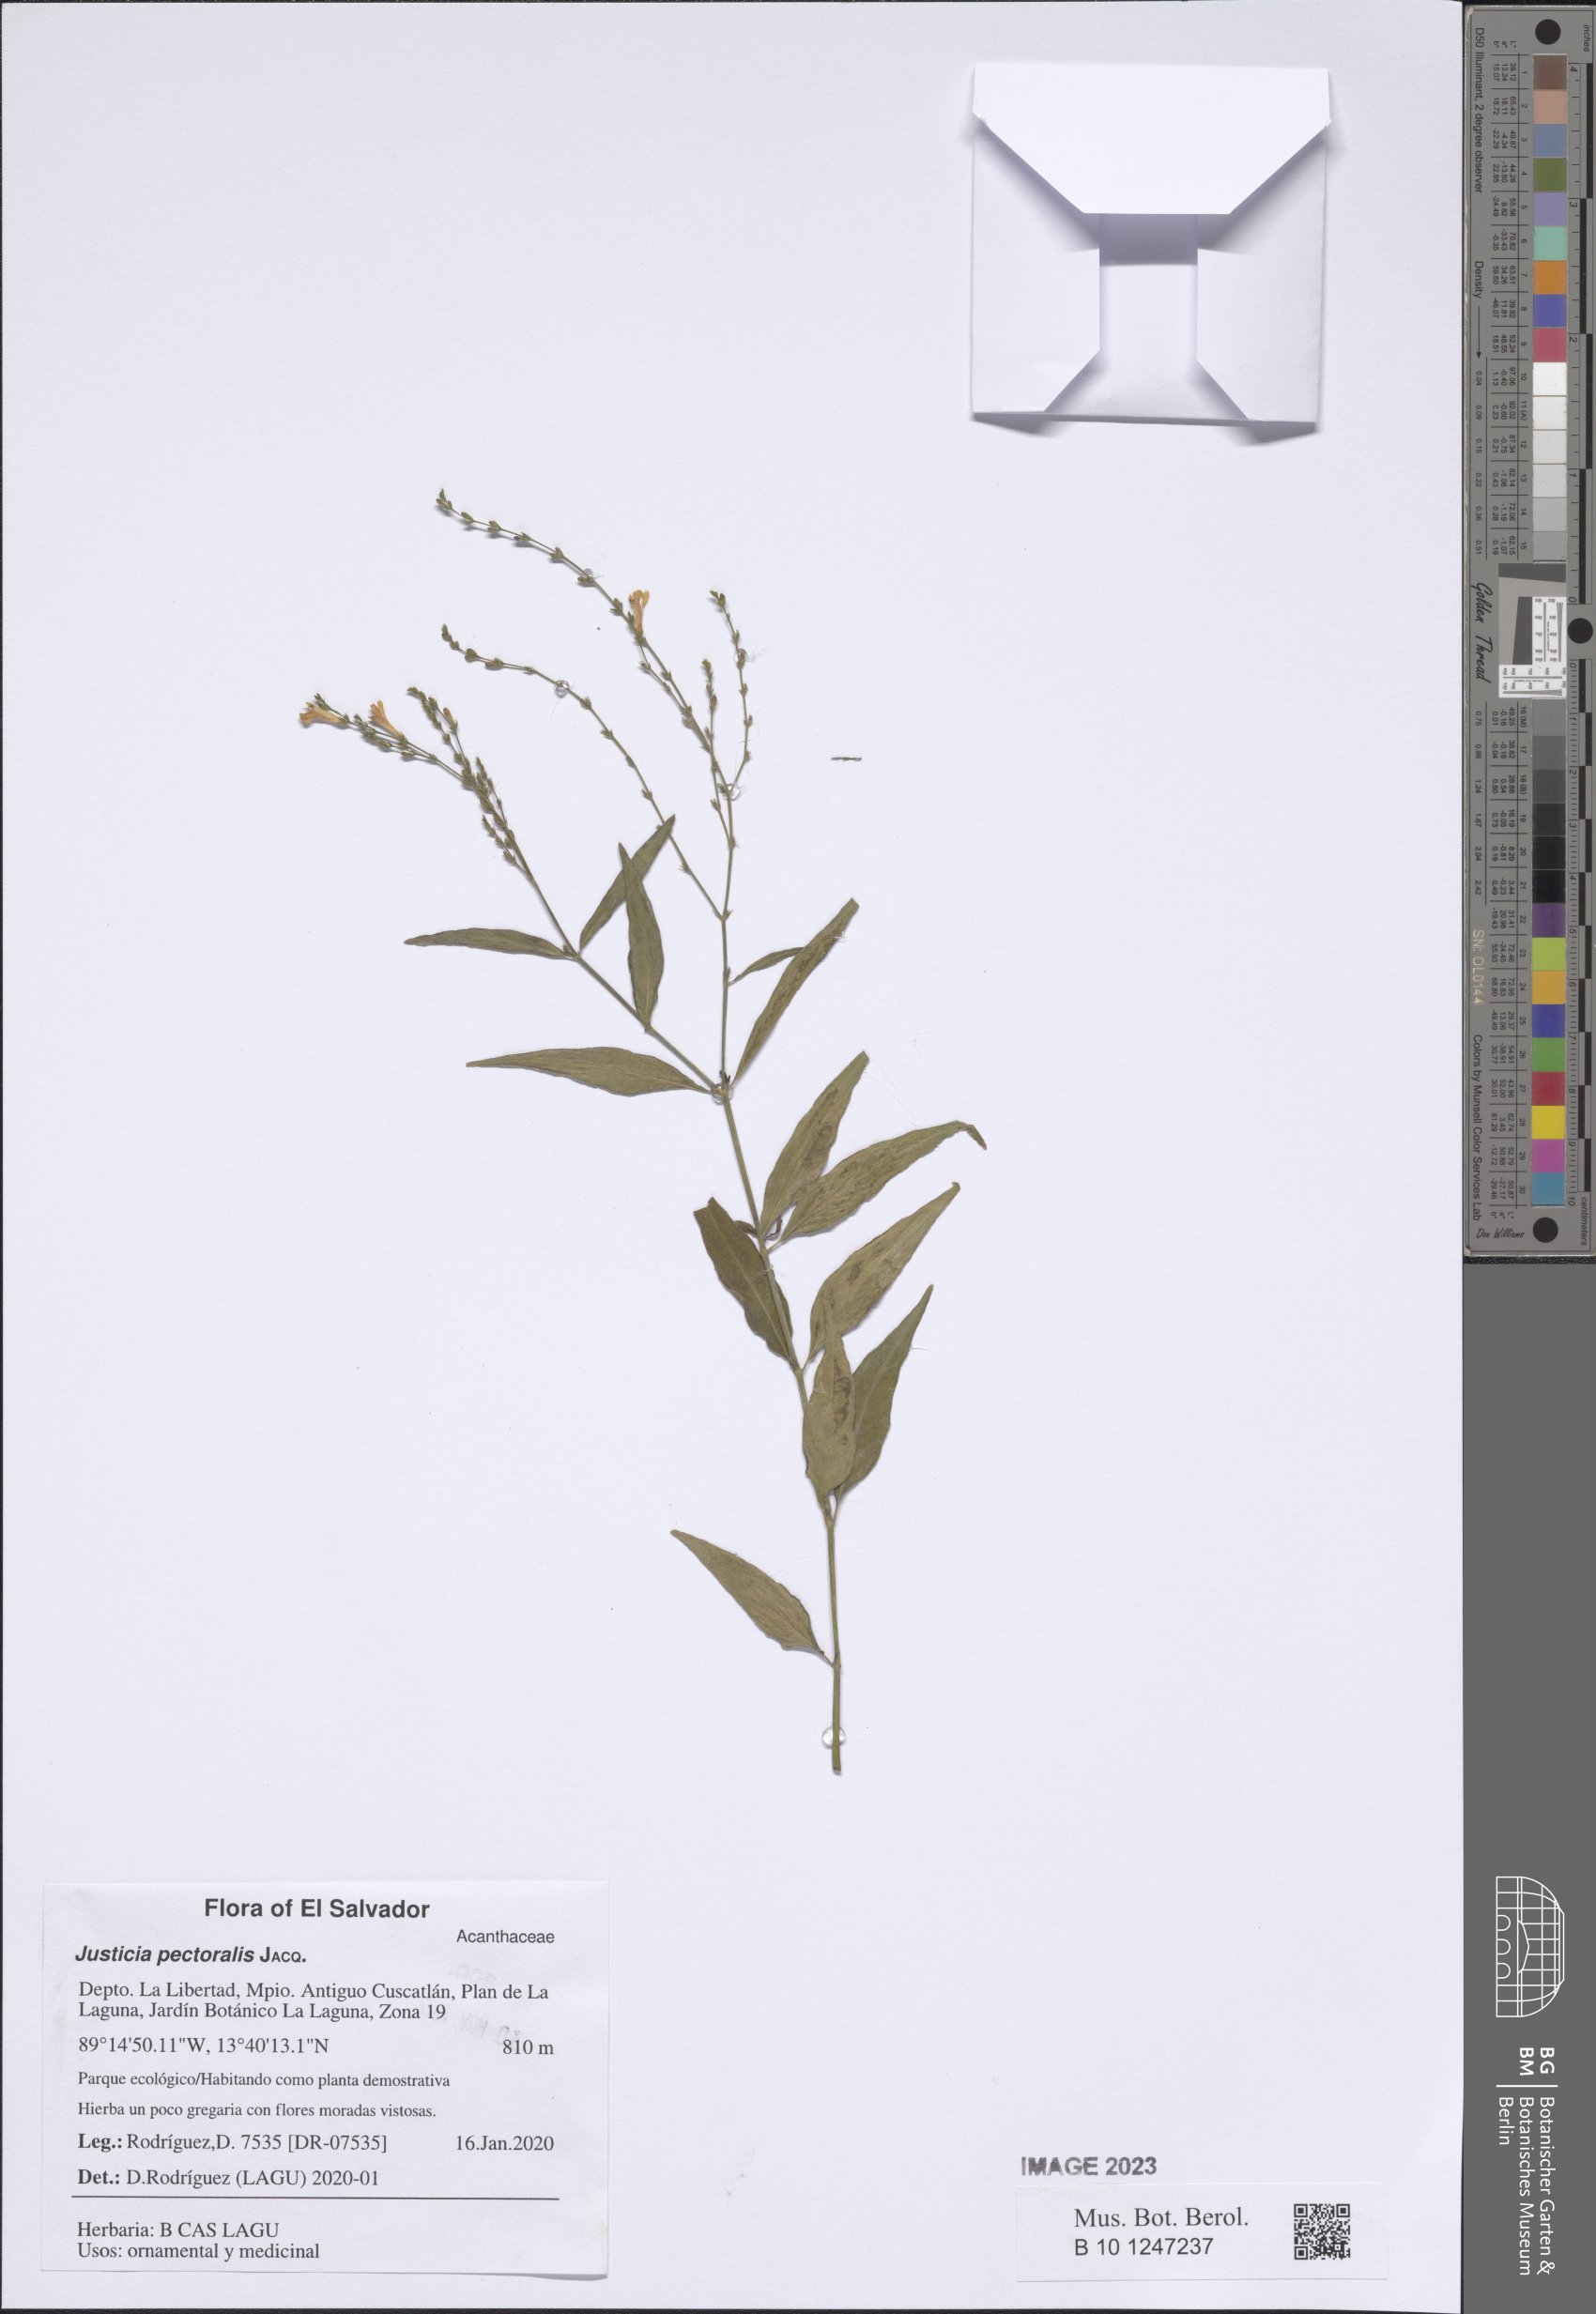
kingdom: Plantae
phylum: Tracheophyta
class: Magnoliopsida
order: Lamiales
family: Acanthaceae
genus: Dianthera
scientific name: Dianthera pectoralis
